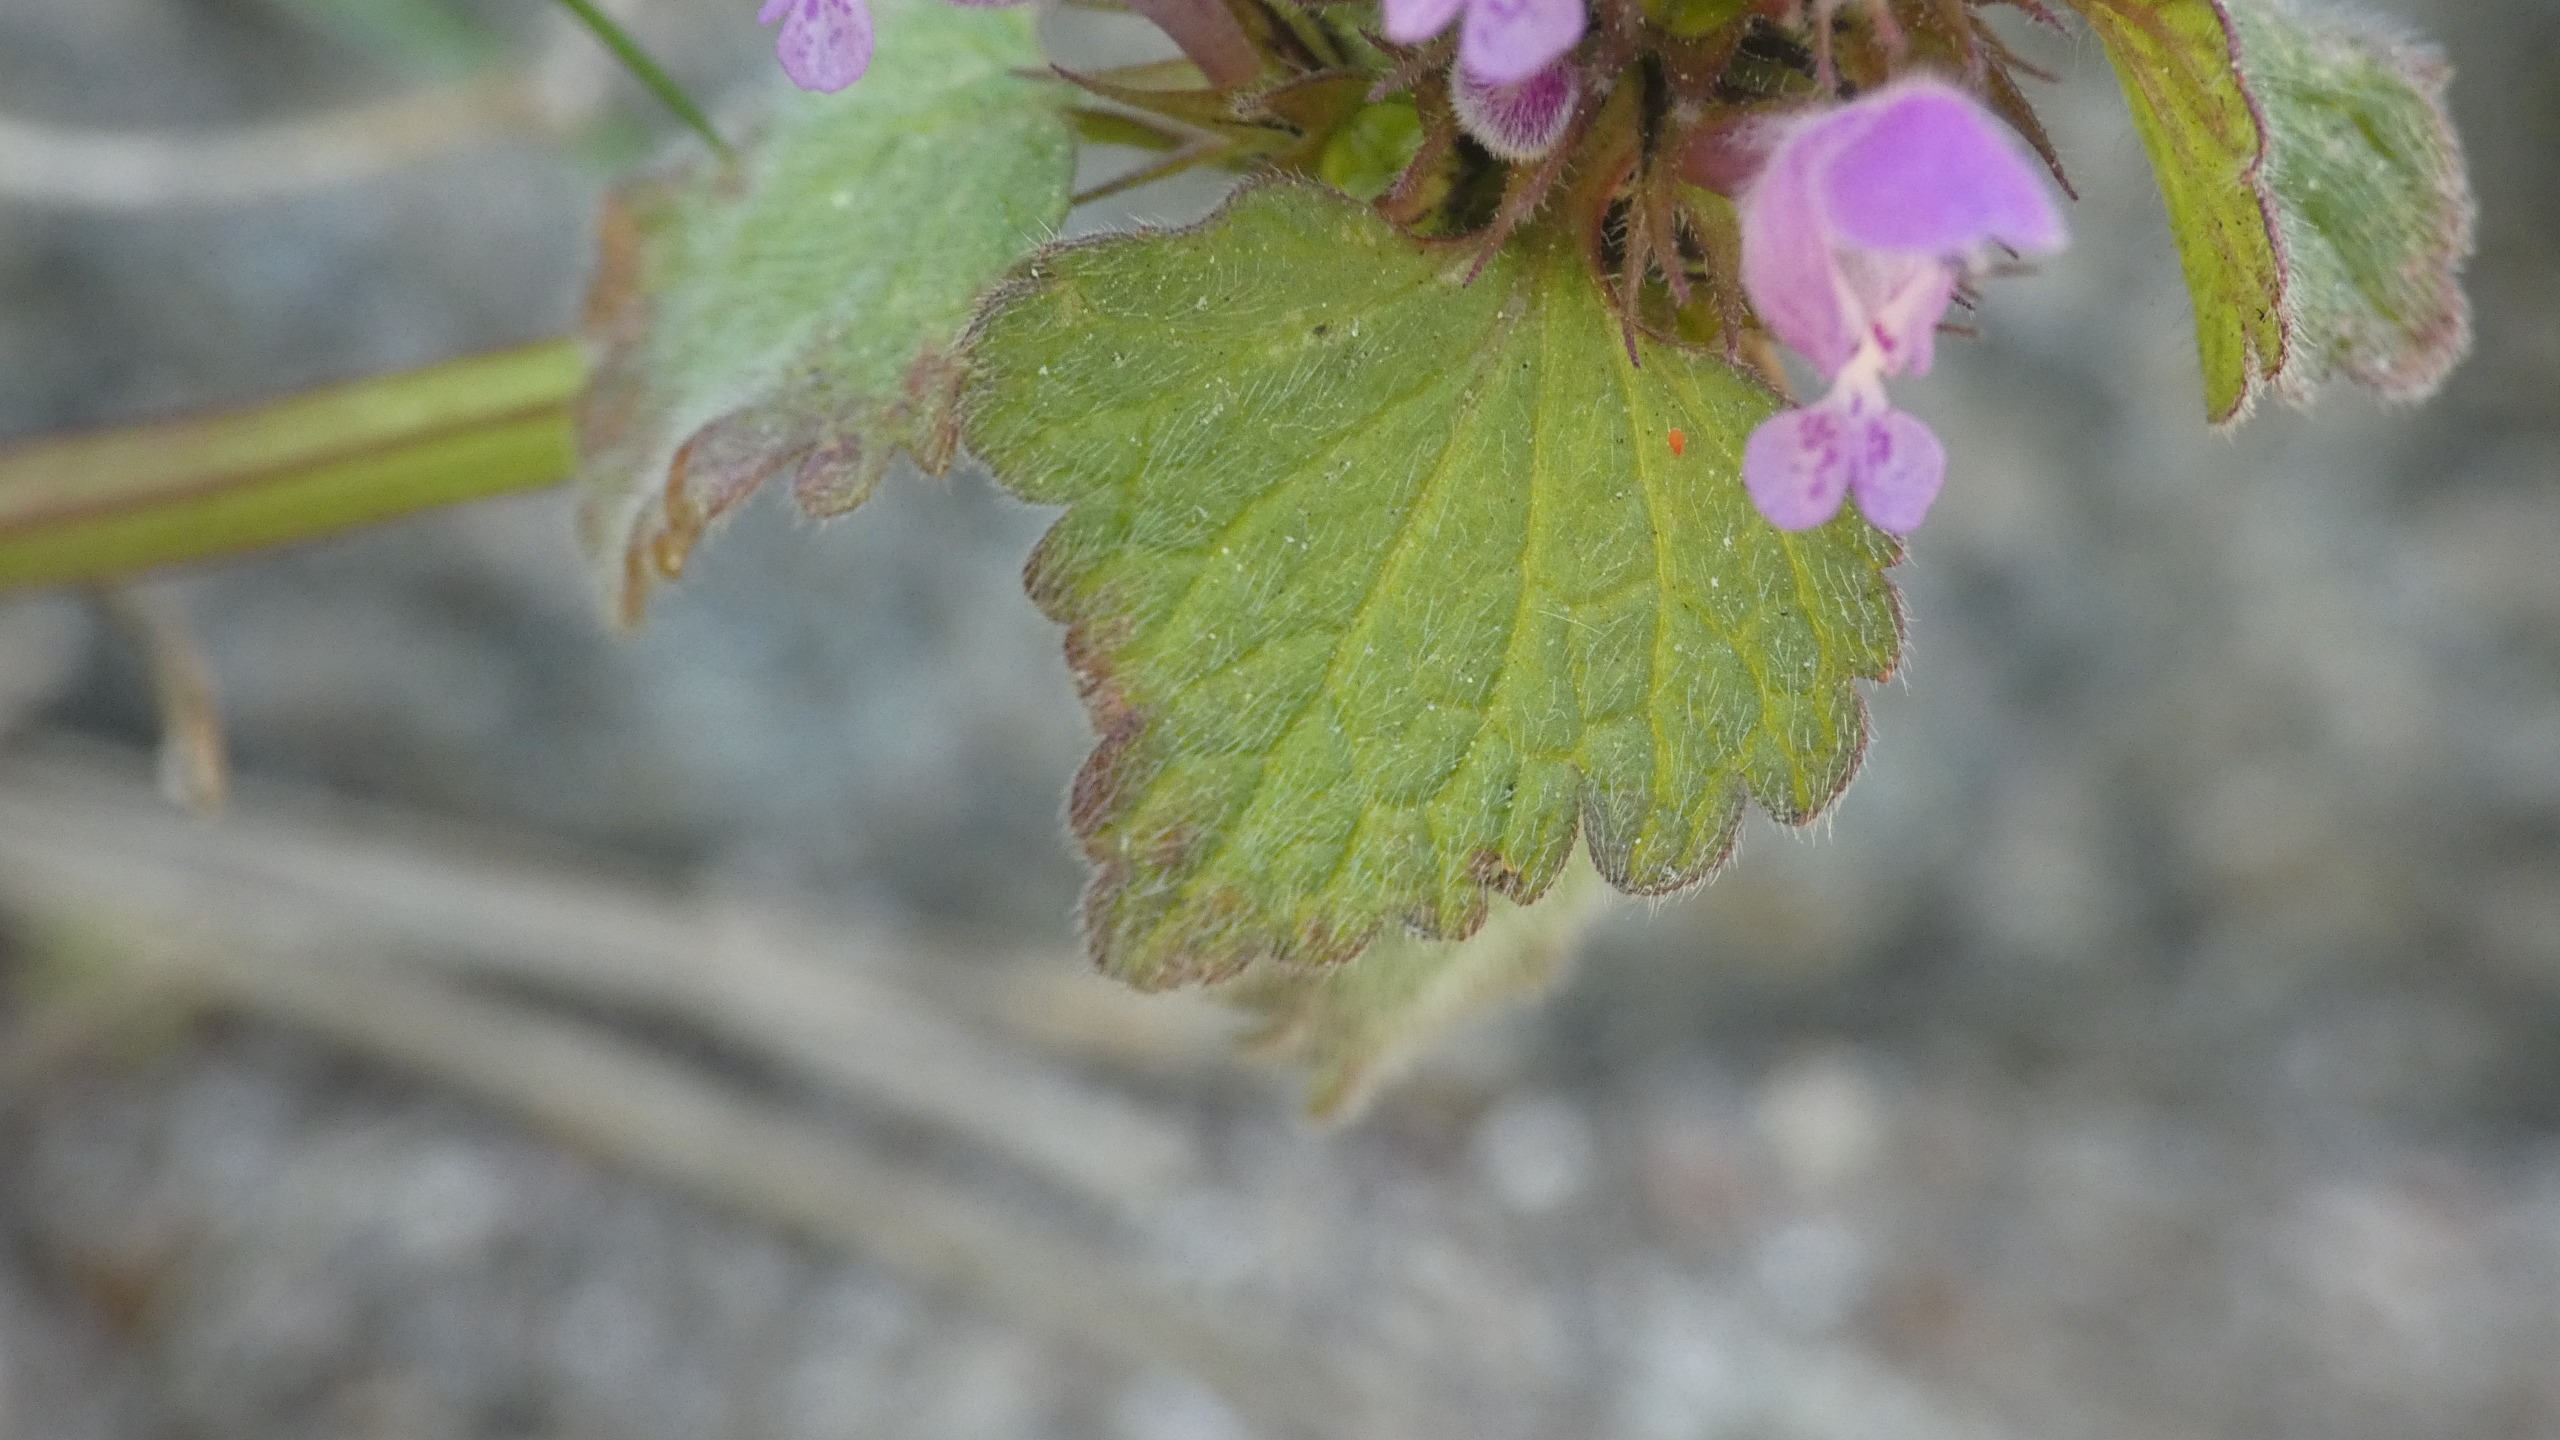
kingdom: Plantae
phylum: Tracheophyta
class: Magnoliopsida
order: Lamiales
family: Lamiaceae
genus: Lamium
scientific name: Lamium purpureum
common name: Rød tvetand
